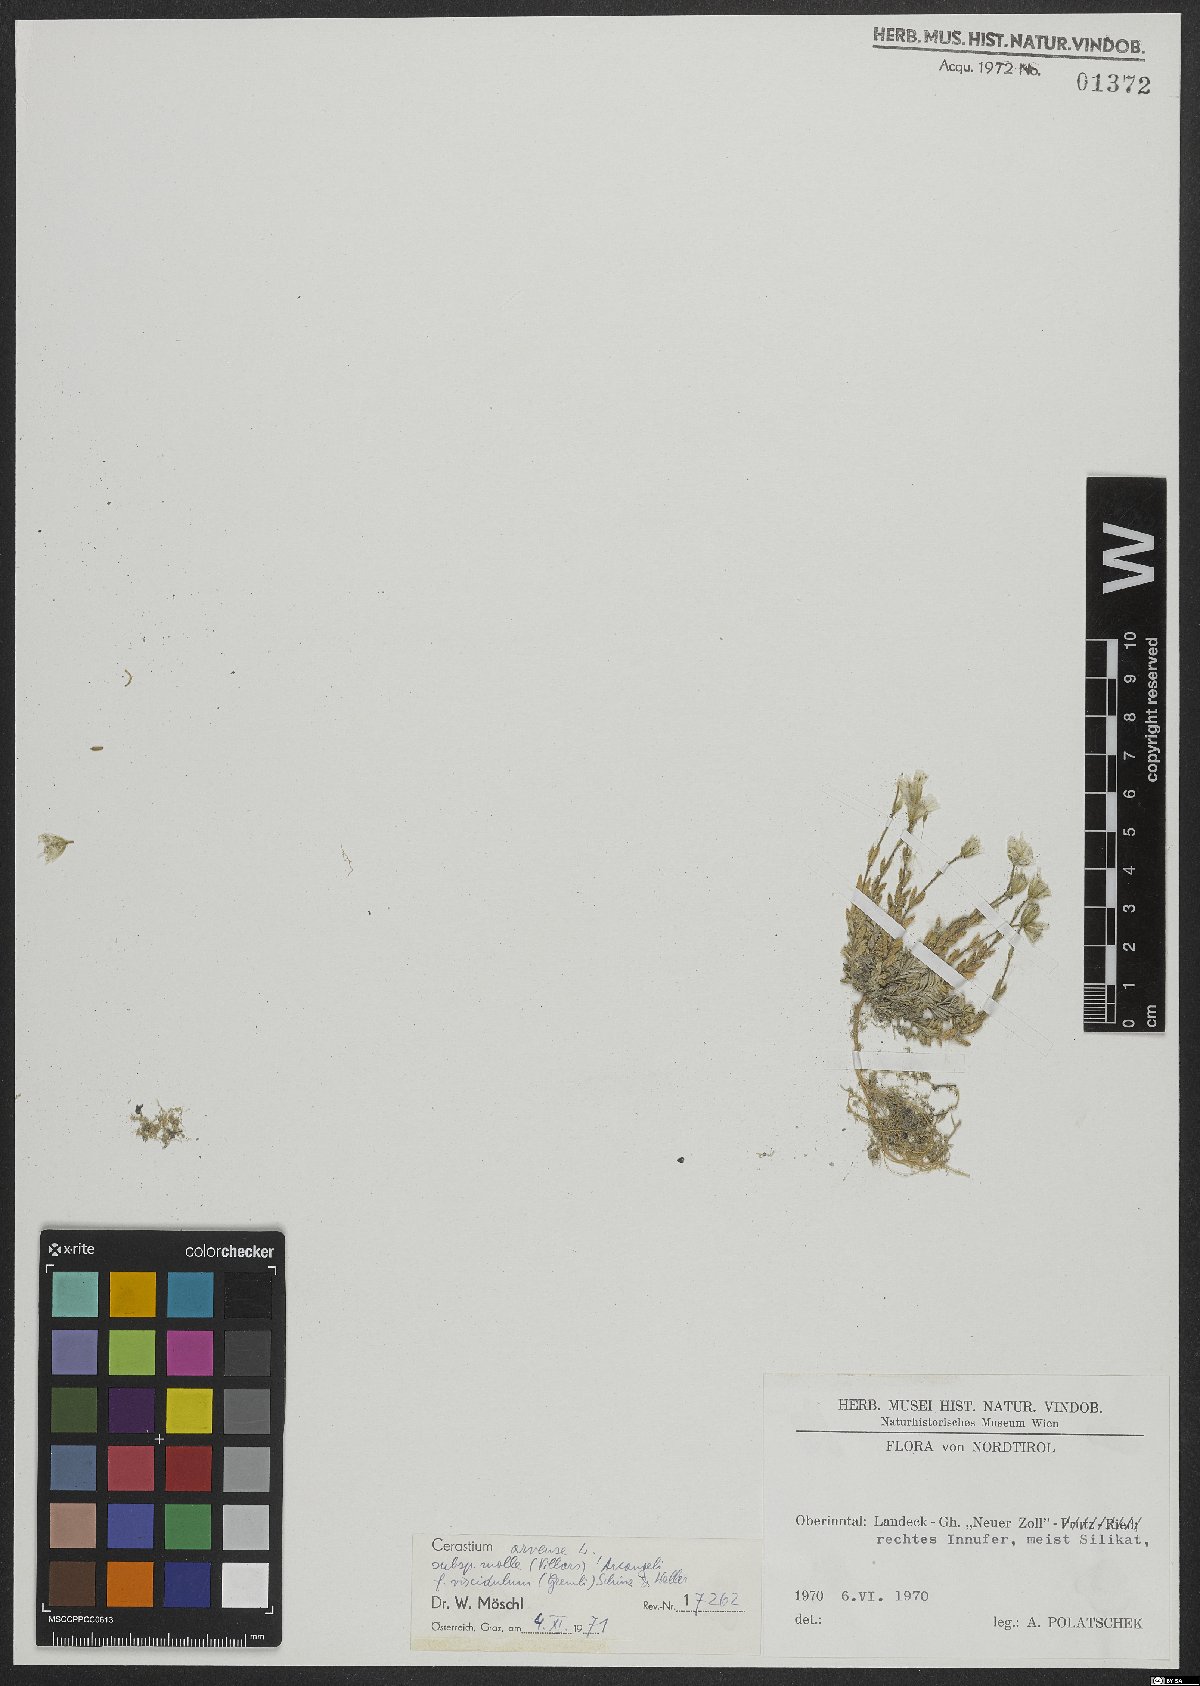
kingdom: Plantae
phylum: Tracheophyta
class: Magnoliopsida
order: Caryophyllales
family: Caryophyllaceae
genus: Cerastium
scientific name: Cerastium arvense
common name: Field mouse-ear
